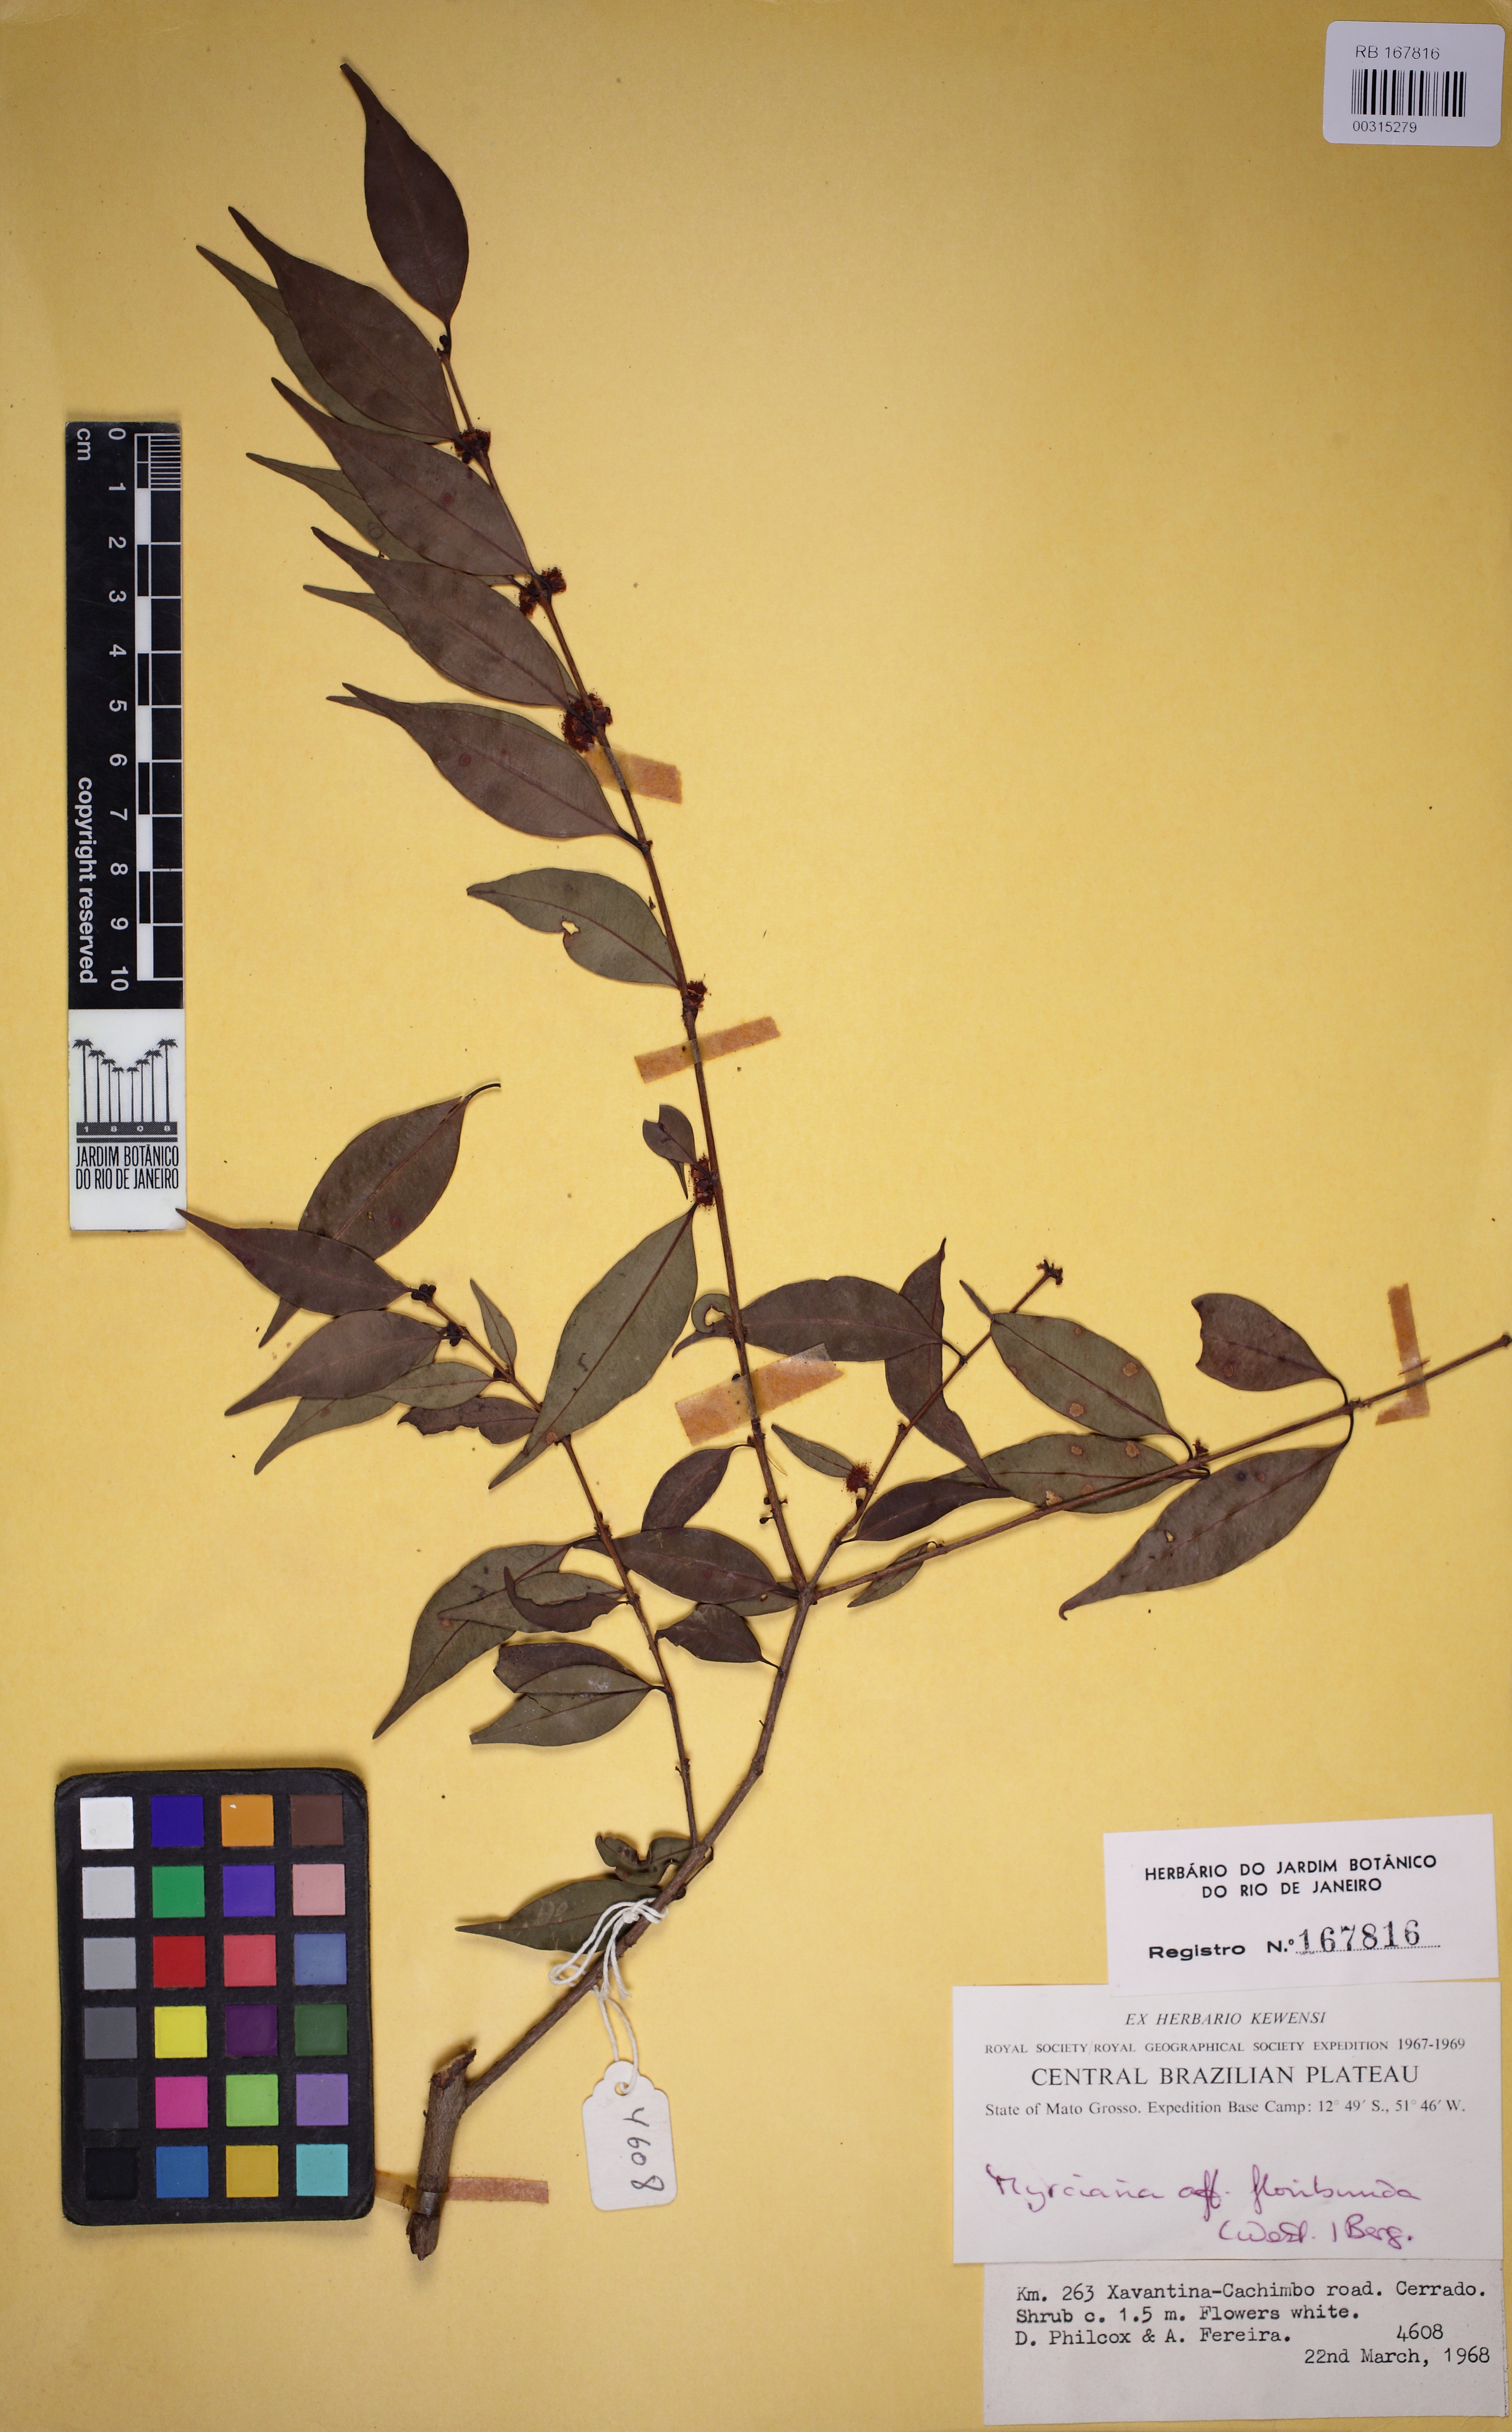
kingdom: Plantae
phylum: Tracheophyta
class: Magnoliopsida
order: Myrtales
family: Myrtaceae
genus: Myrciaria
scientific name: Myrciaria floribunda
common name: Guavaberry
